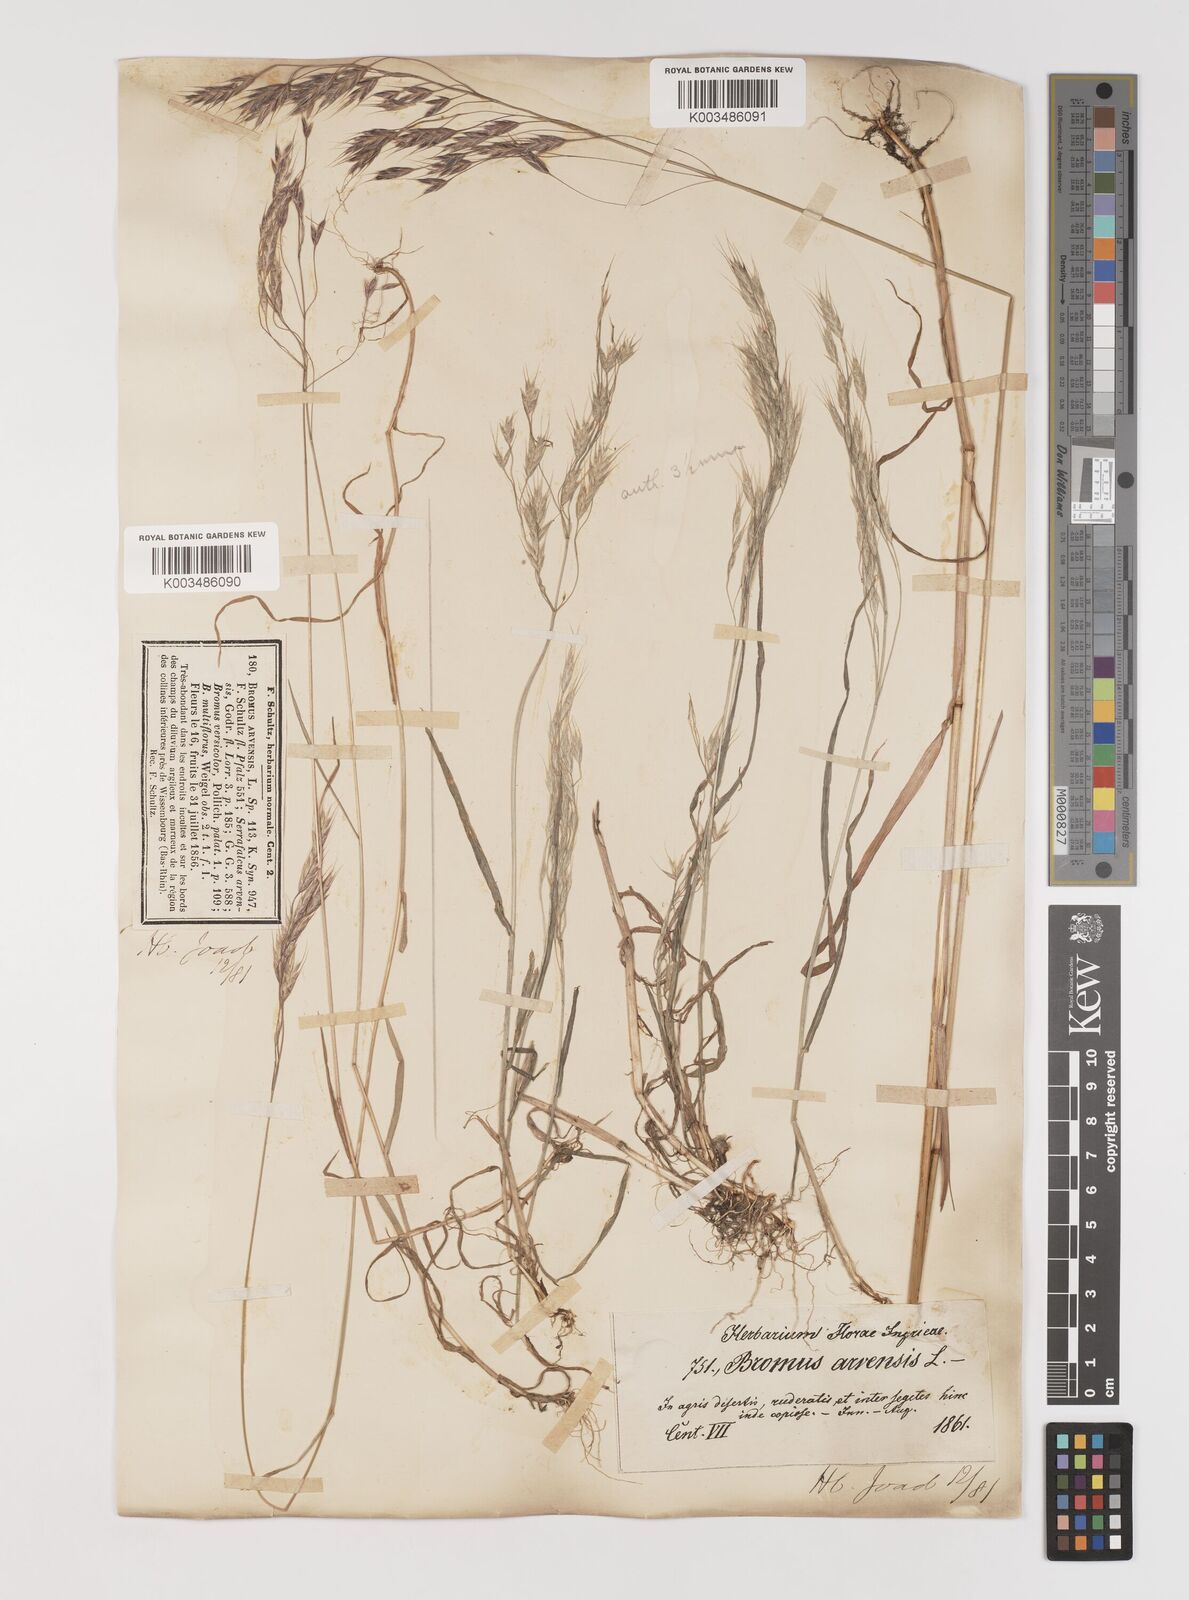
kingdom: Plantae
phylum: Tracheophyta
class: Liliopsida
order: Poales
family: Poaceae
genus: Bromus
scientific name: Bromus arvensis
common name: Field brome
